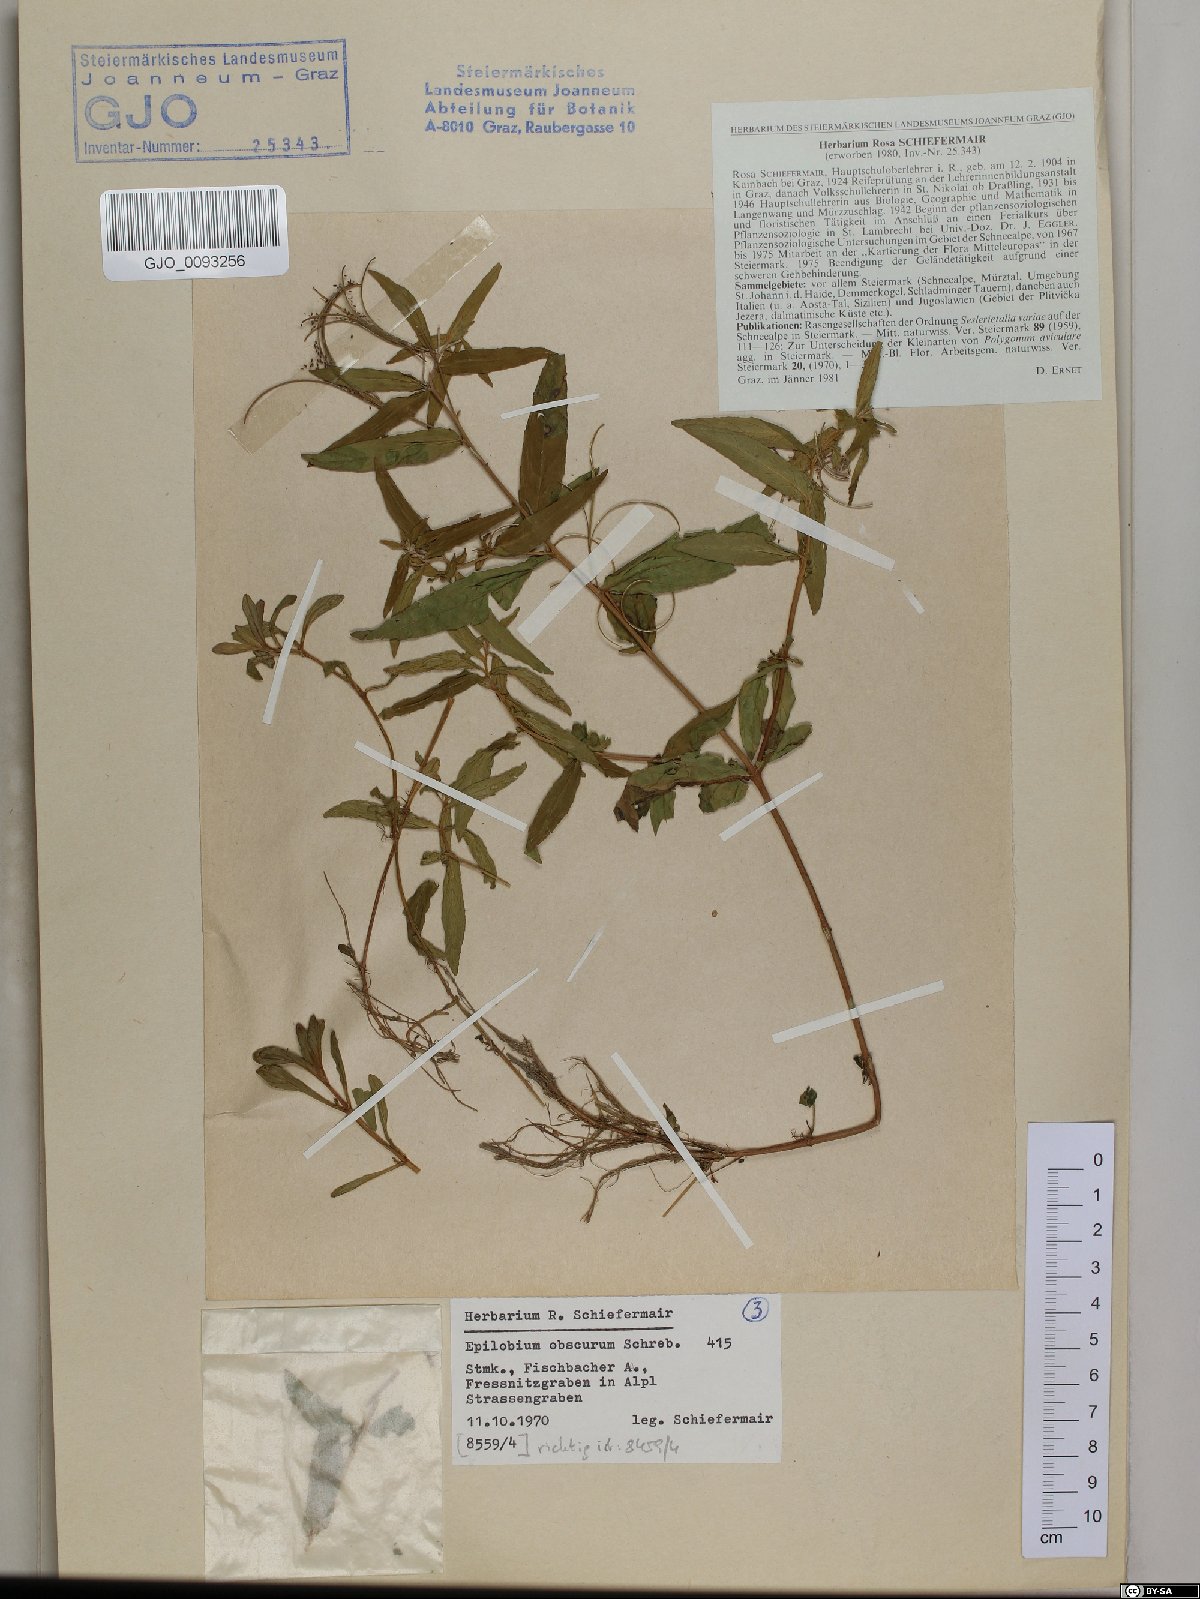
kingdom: Plantae
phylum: Tracheophyta
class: Magnoliopsida
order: Myrtales
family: Onagraceae
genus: Epilobium
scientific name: Epilobium obscurum
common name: Short-fruited willowherb
